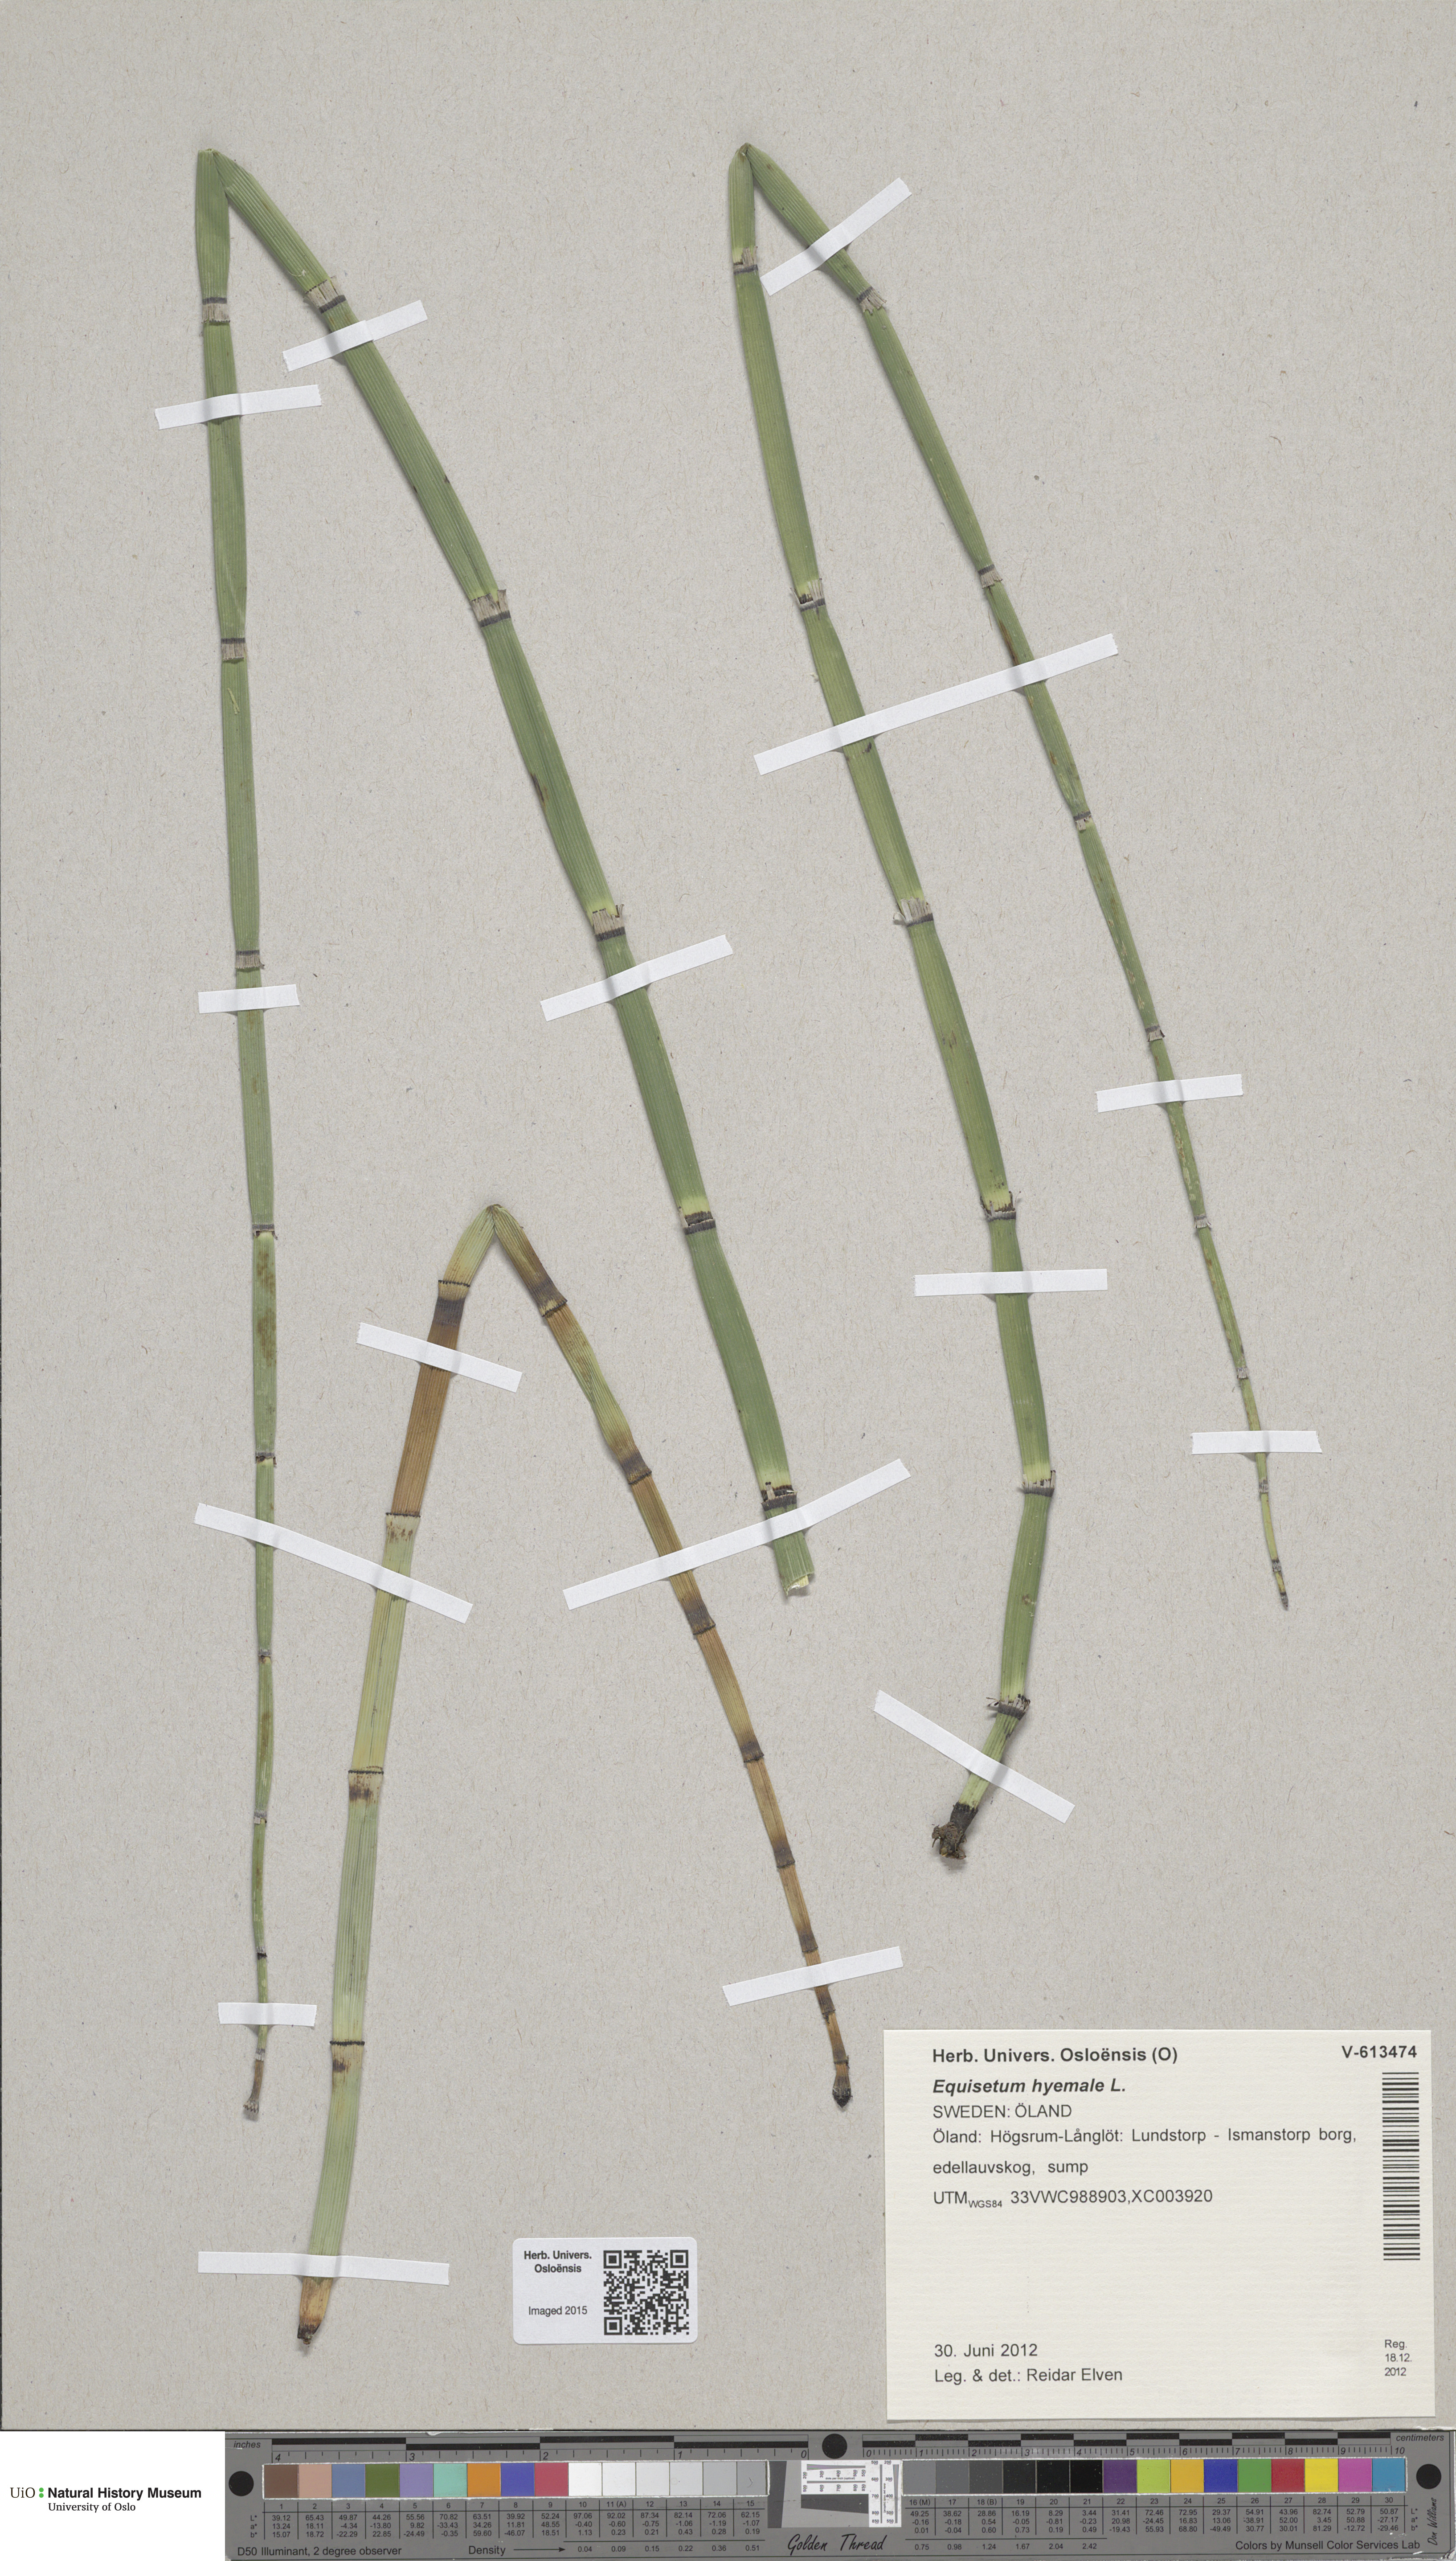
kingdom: Plantae
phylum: Tracheophyta
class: Polypodiopsida
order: Equisetales
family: Equisetaceae
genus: Equisetum
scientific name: Equisetum hyemale
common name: Rough horsetail
